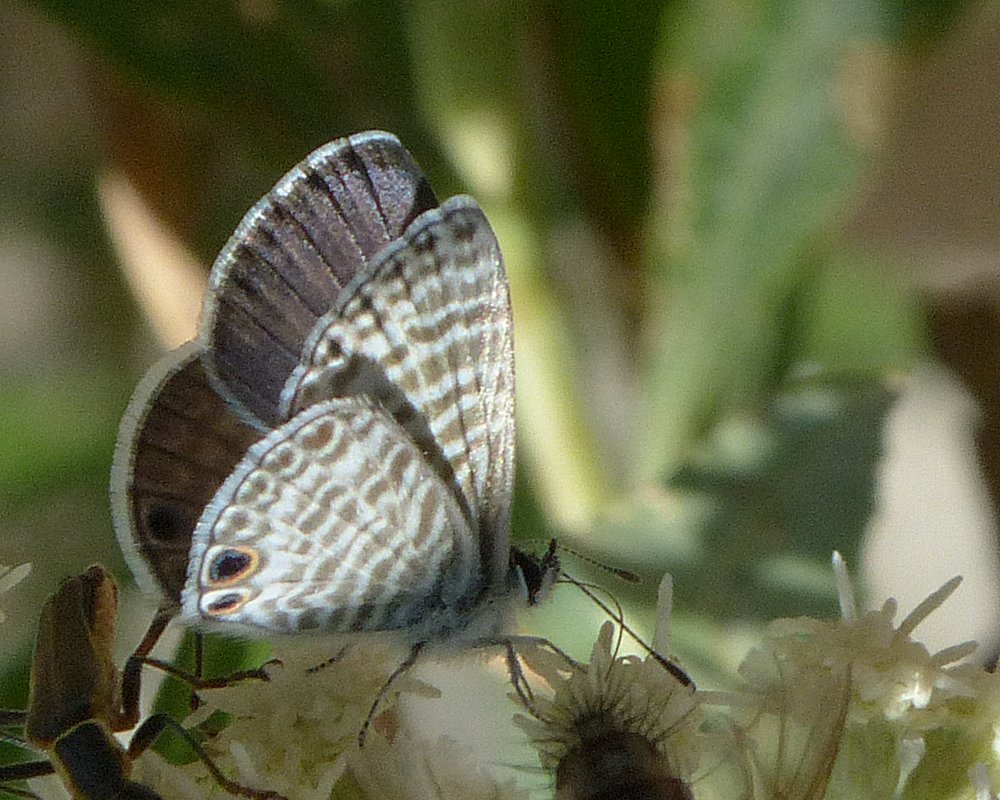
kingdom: Animalia
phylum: Arthropoda
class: Insecta
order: Lepidoptera
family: Lycaenidae
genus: Leptotes
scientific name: Leptotes marina
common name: Marine Blue
